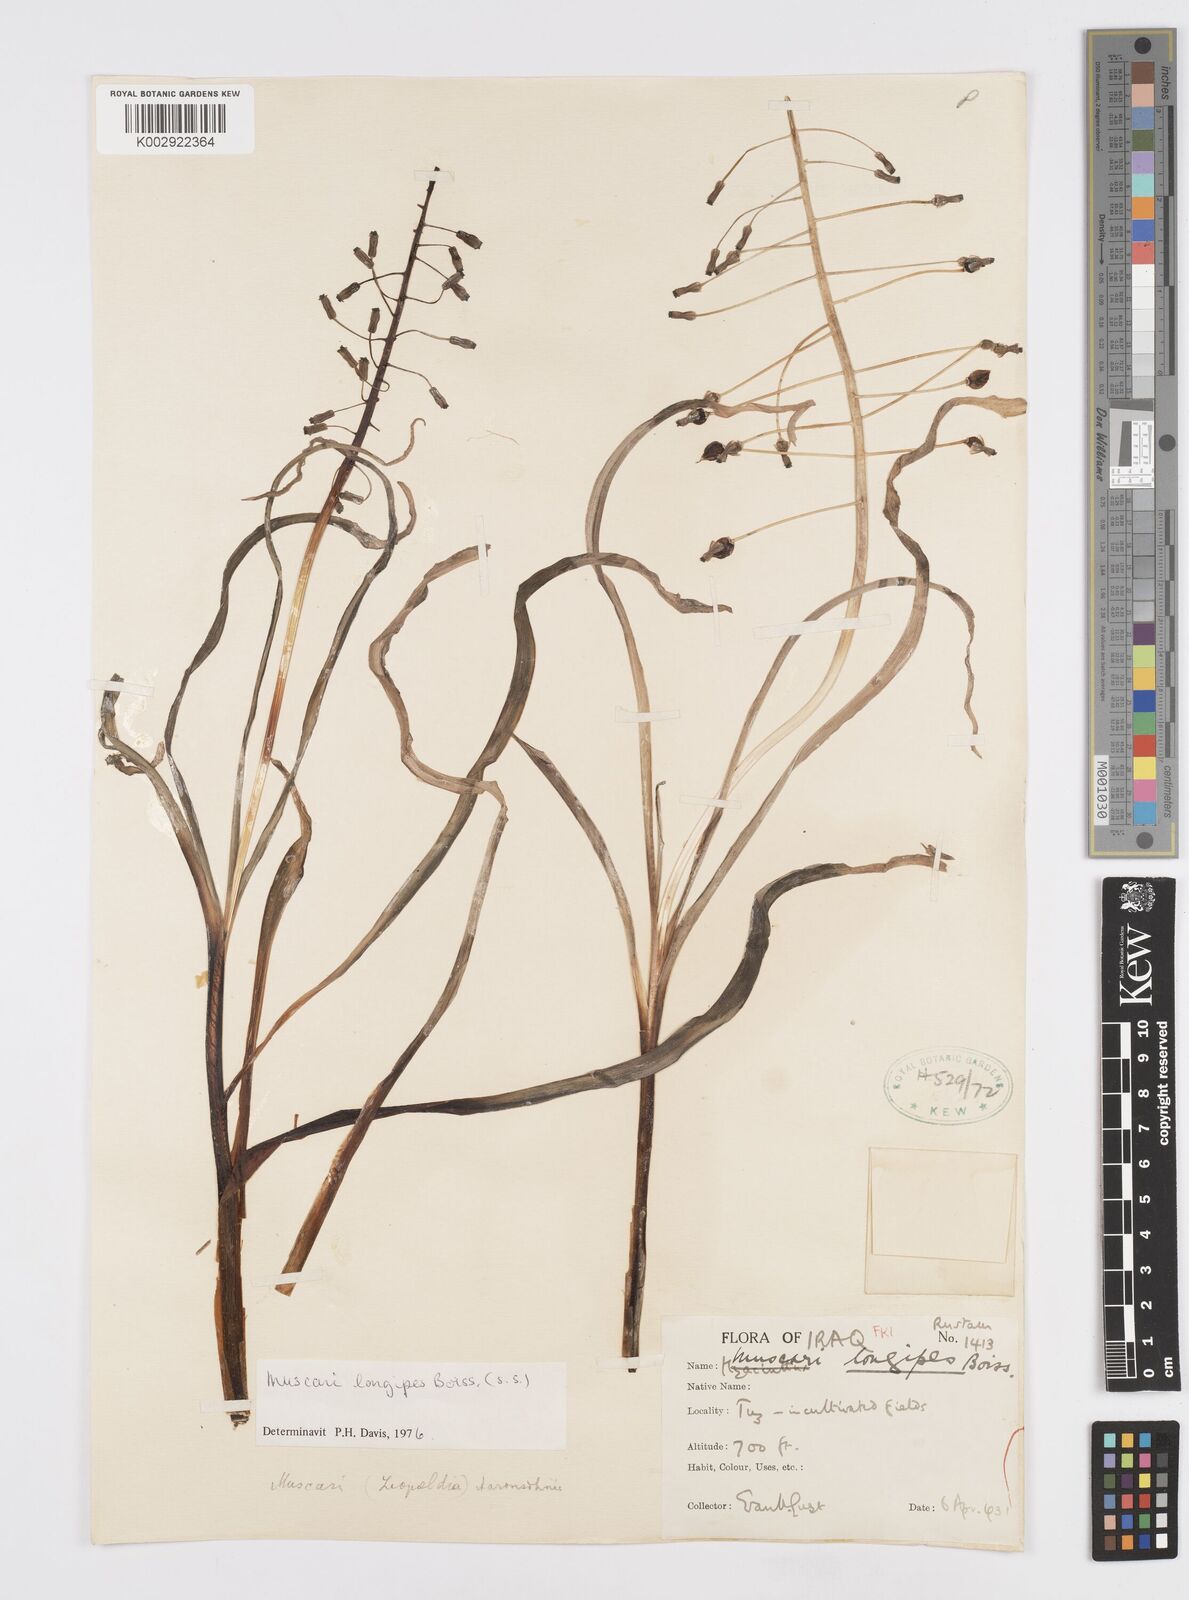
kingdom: Plantae
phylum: Tracheophyta
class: Liliopsida
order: Asparagales
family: Asparagaceae
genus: Muscari
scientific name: Muscari longipes
